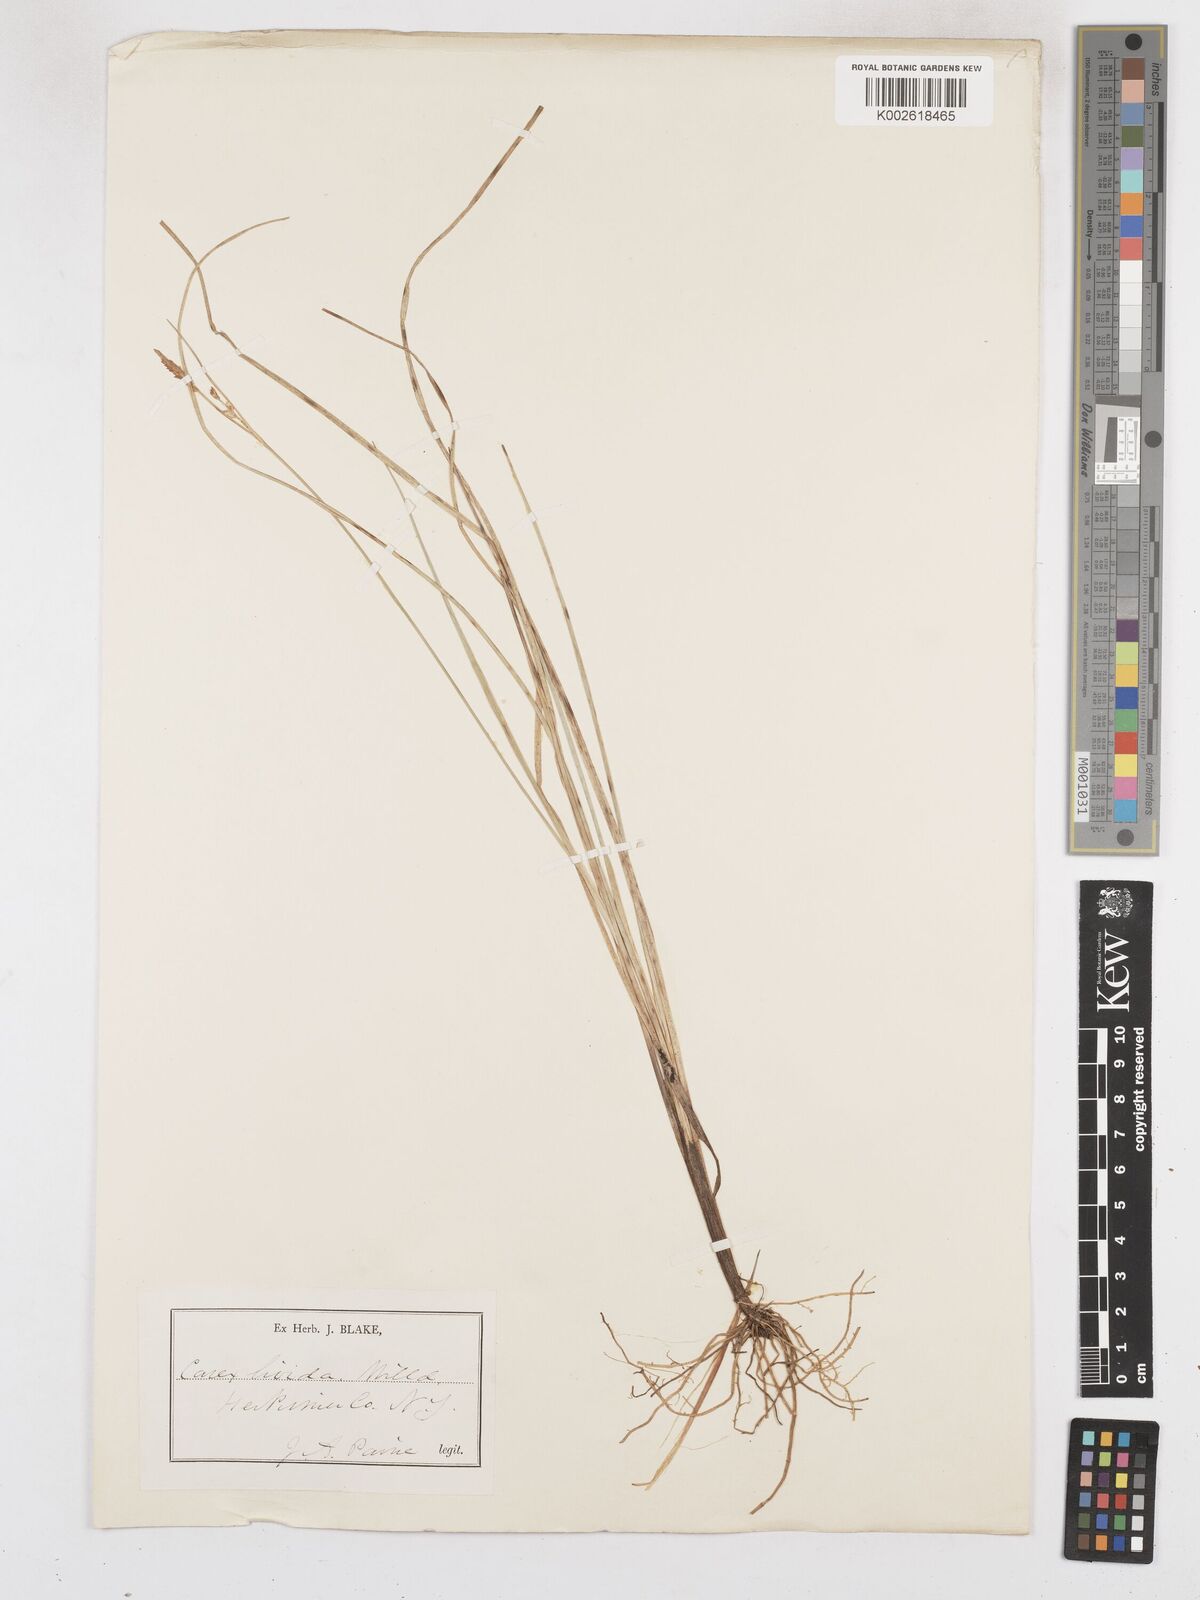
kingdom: Plantae
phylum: Tracheophyta
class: Liliopsida
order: Poales
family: Cyperaceae
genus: Carex
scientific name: Carex livida
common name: Livid sedge
